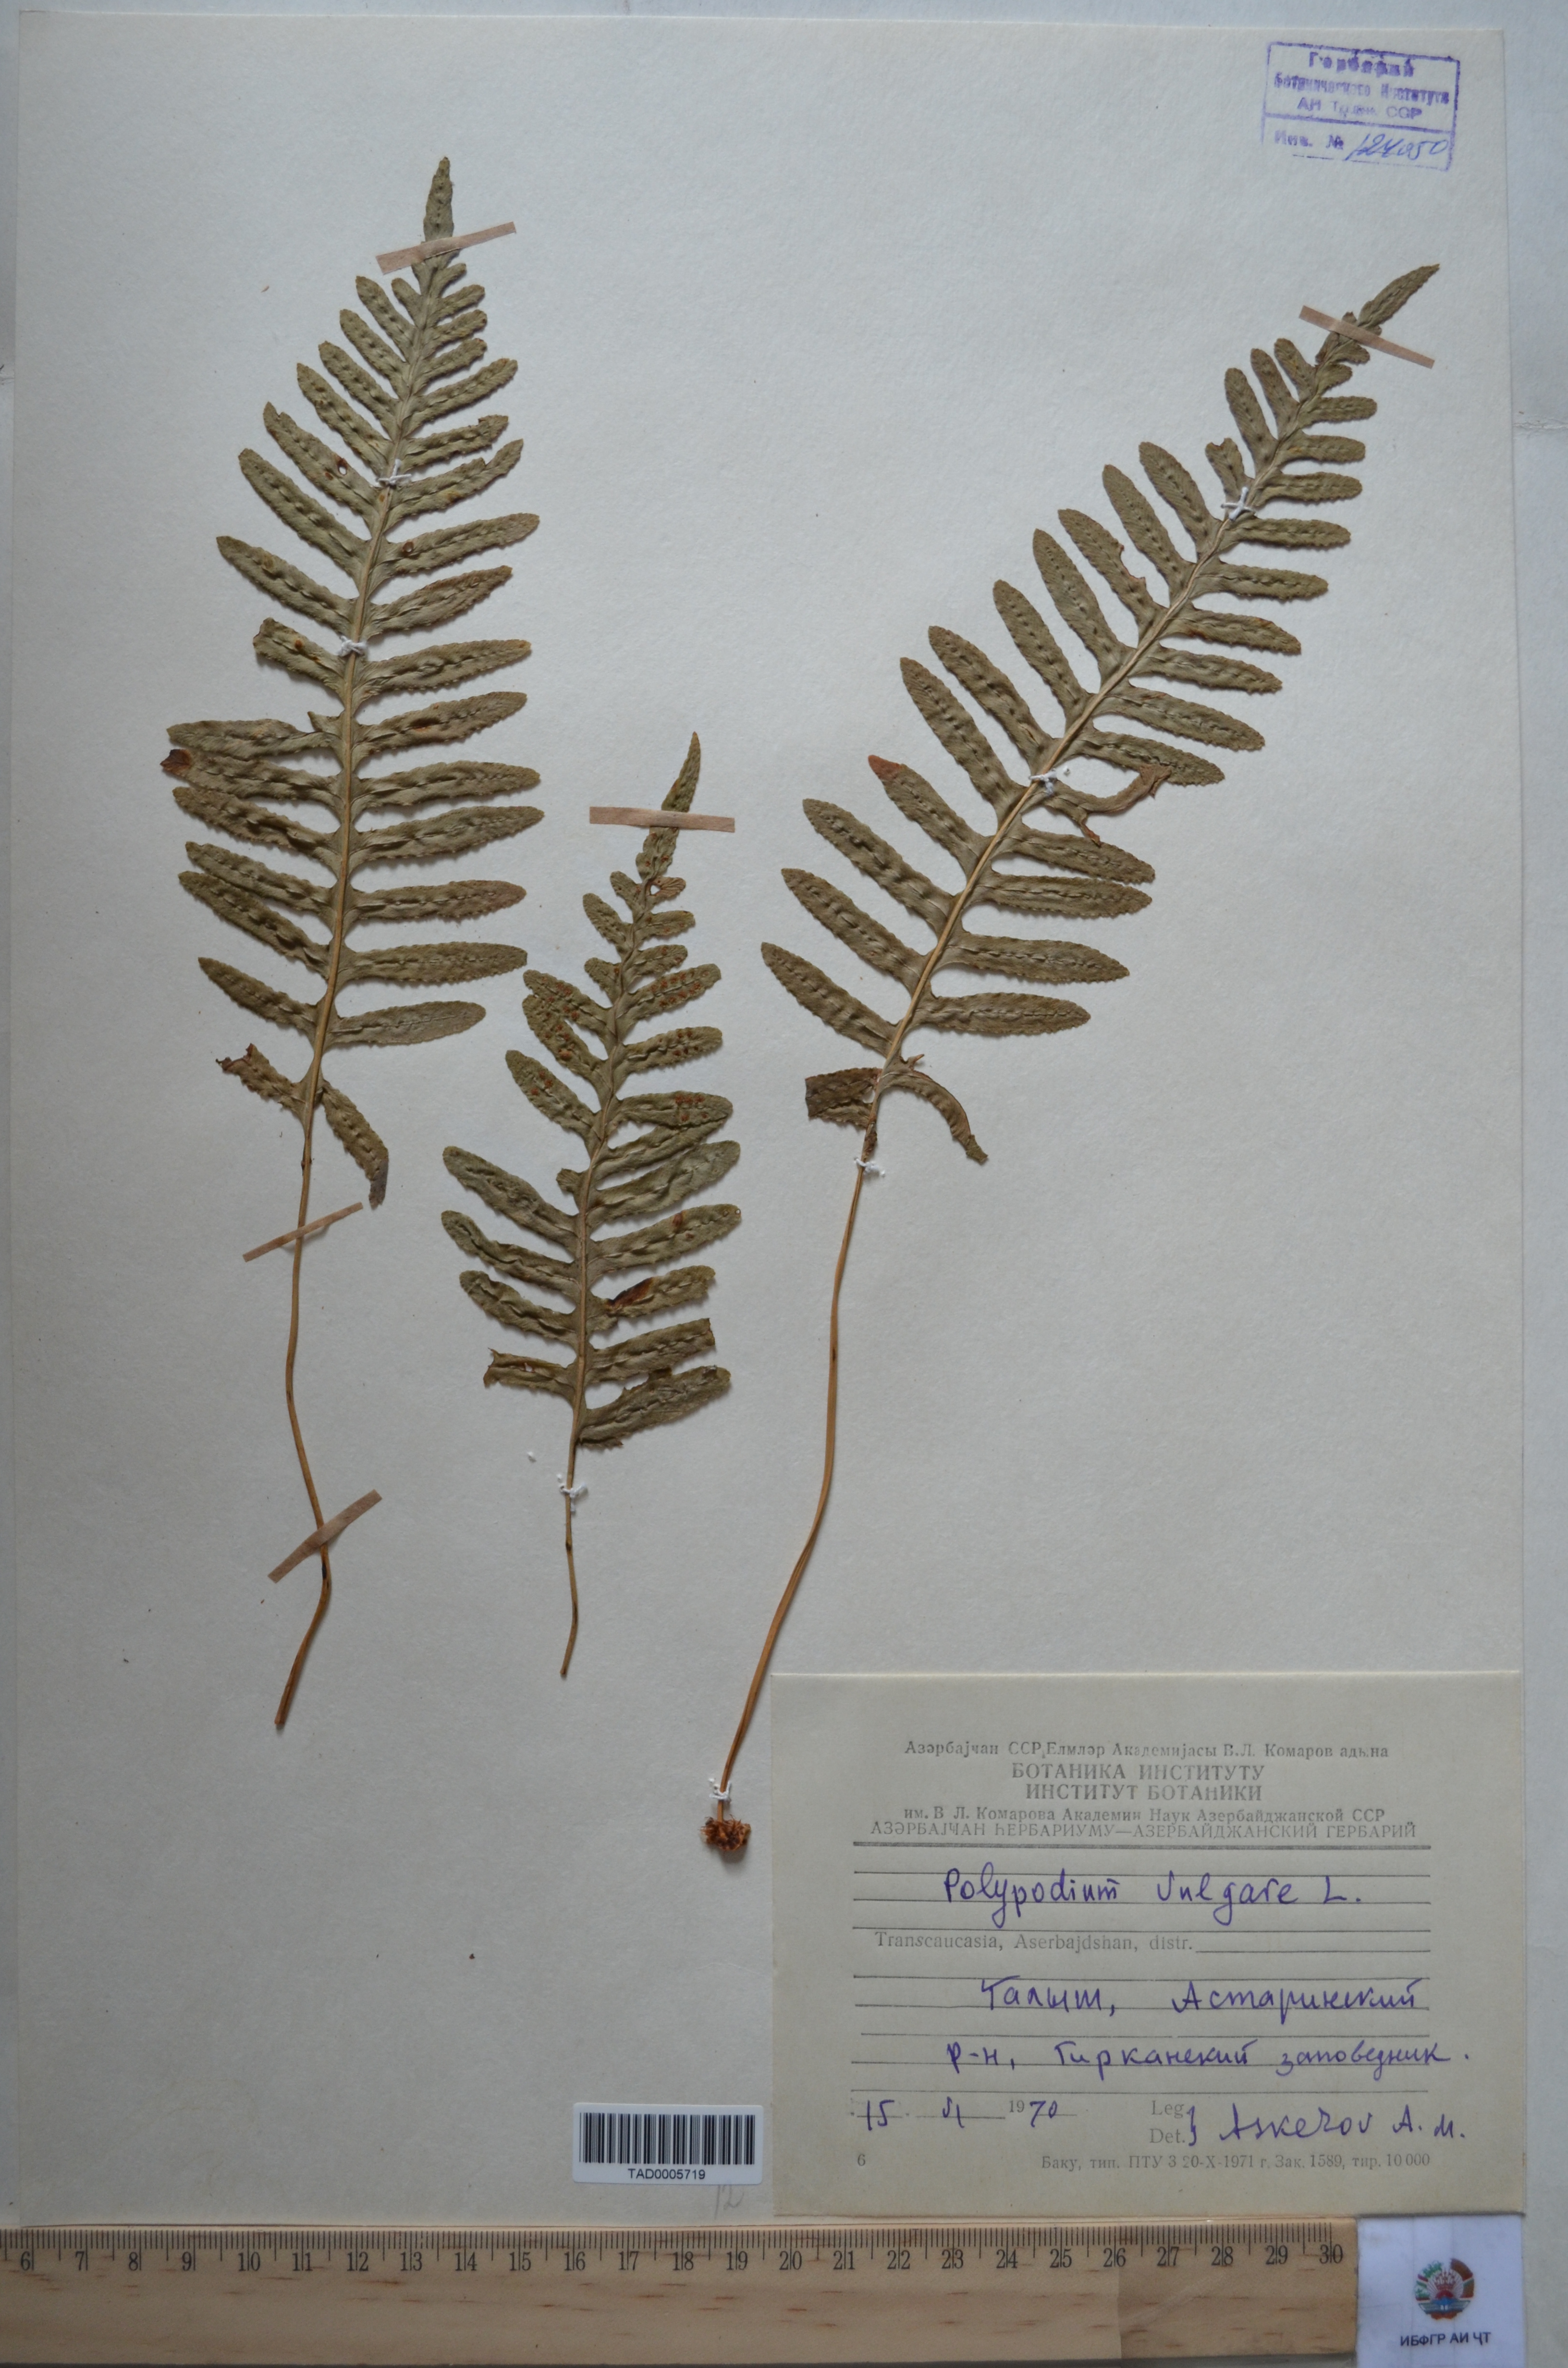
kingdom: Plantae
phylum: Tracheophyta
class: Polypodiopsida
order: Polypodiales
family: Polypodiaceae
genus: Polypodium
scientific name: Polypodium vulgare
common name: Common polypody
